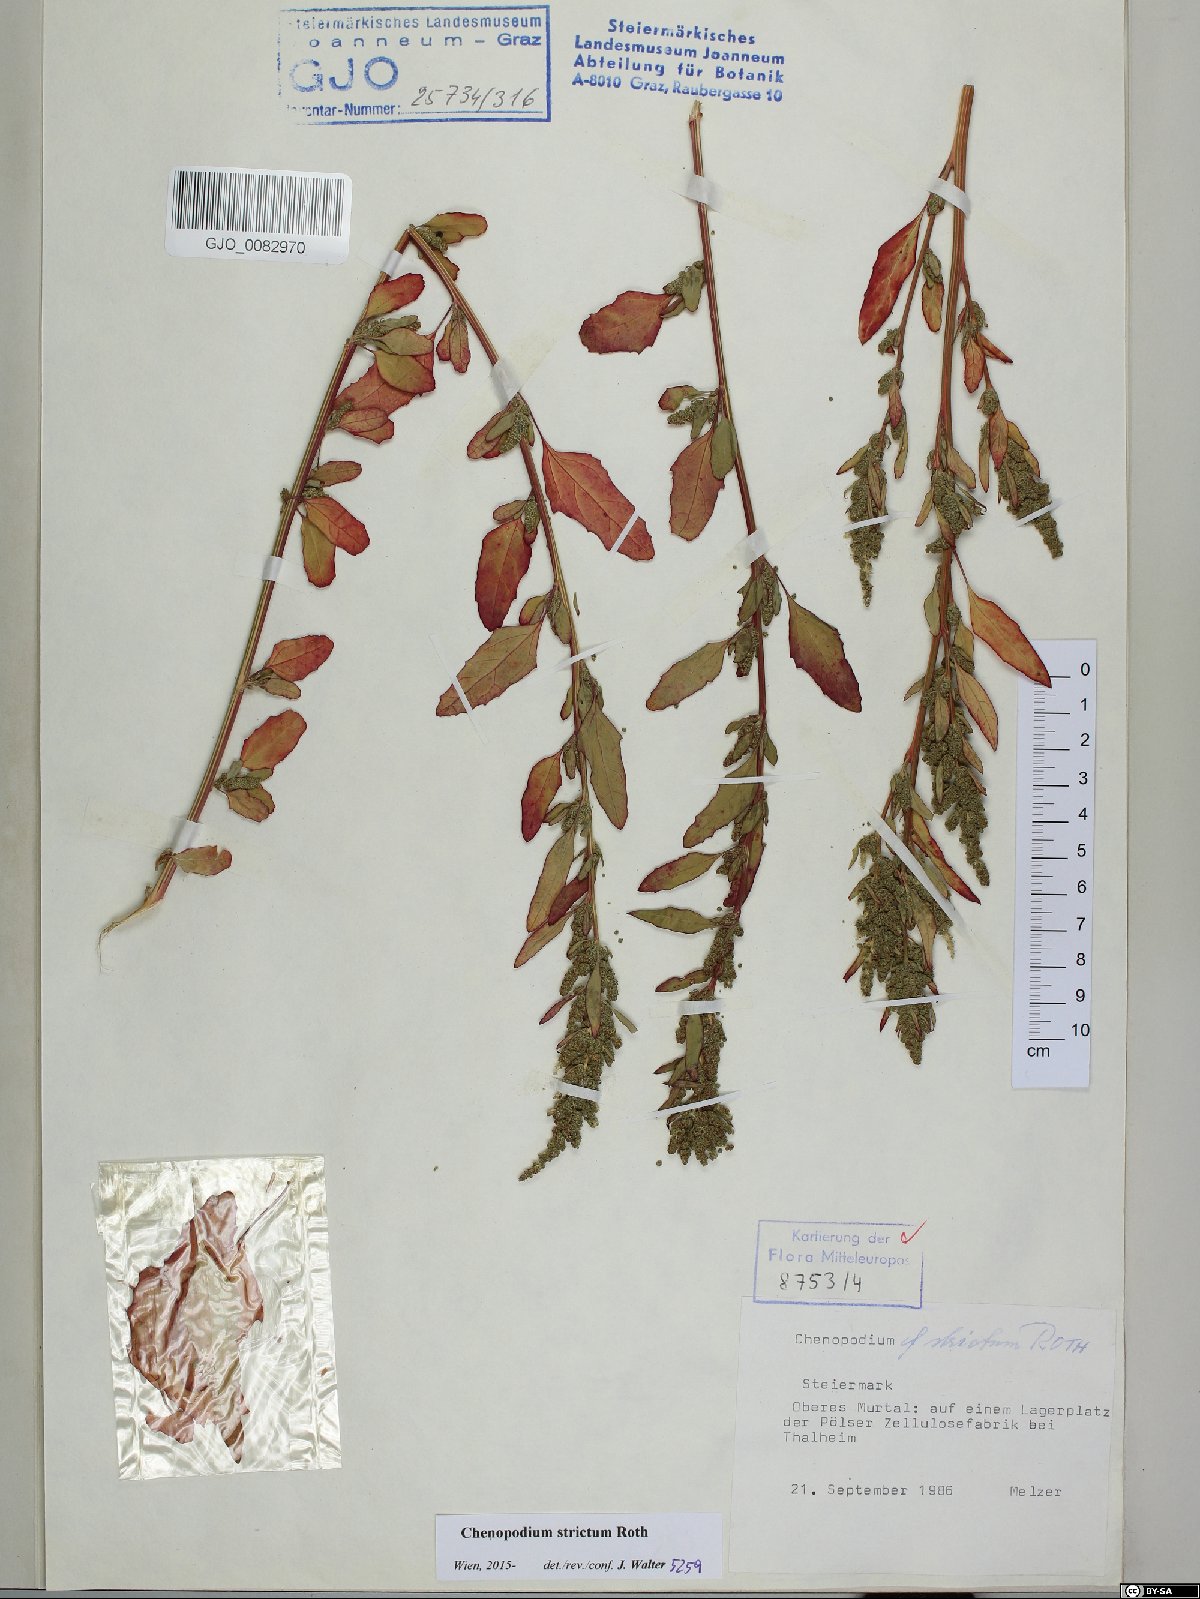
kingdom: Plantae
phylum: Tracheophyta
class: Magnoliopsida
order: Caryophyllales
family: Amaranthaceae
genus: Chenopodium
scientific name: Chenopodium album
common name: Fat-hen
